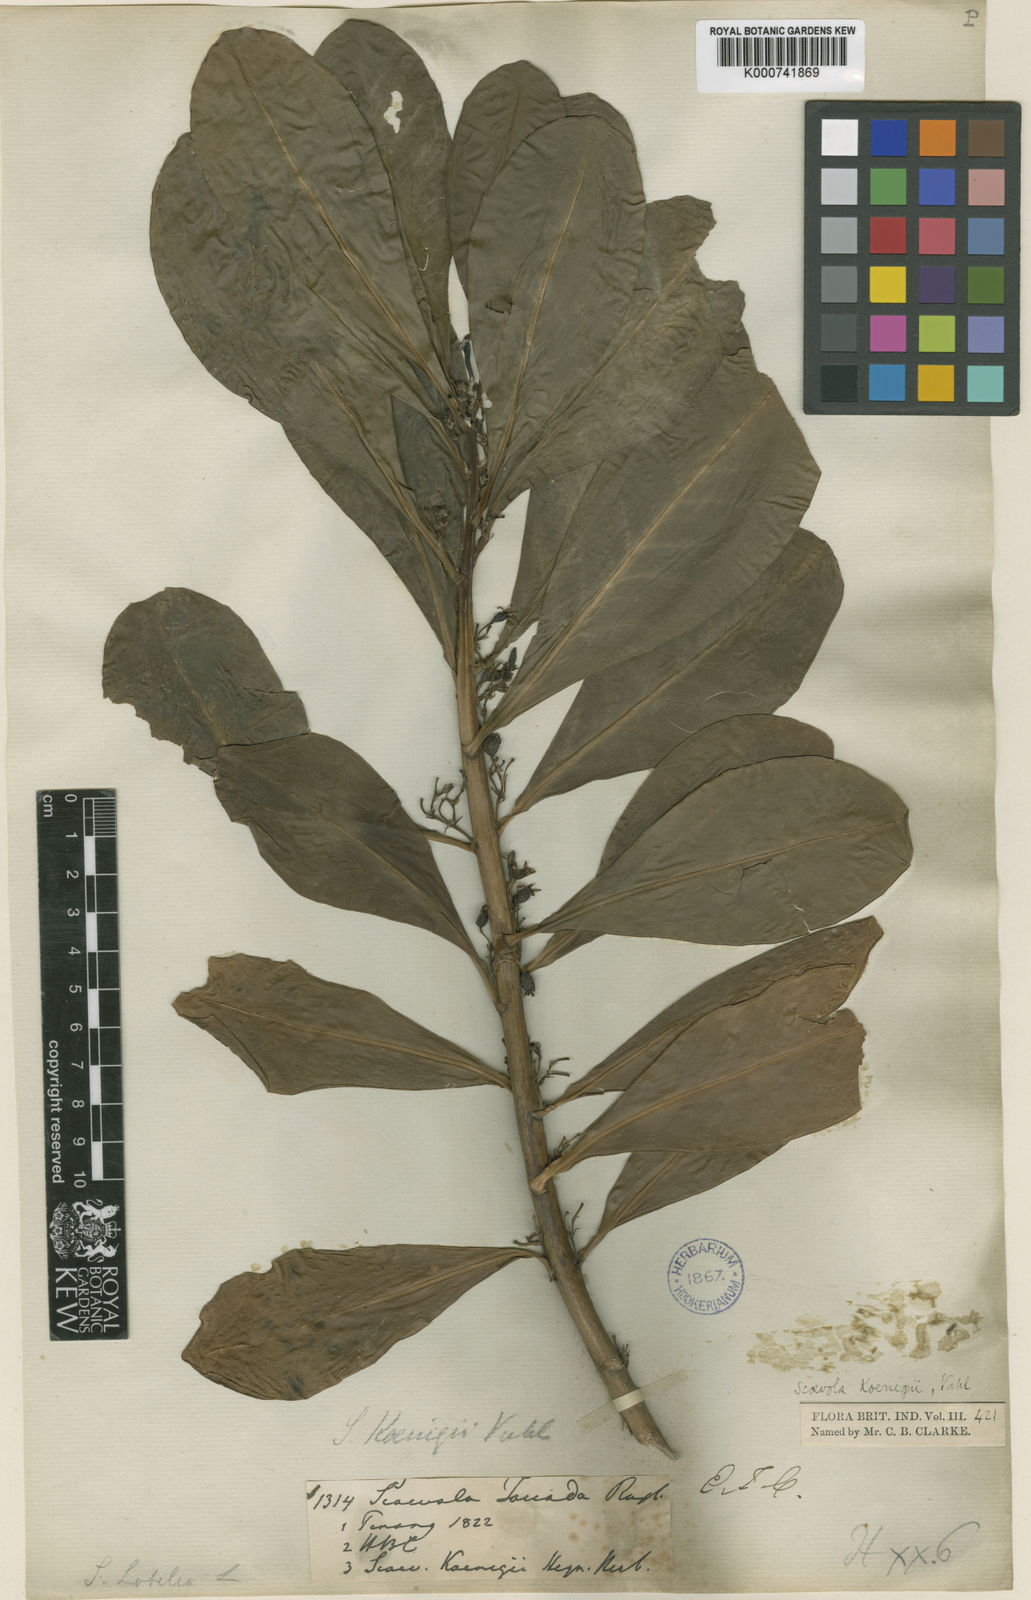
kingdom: Plantae
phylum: Tracheophyta
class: Magnoliopsida
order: Asterales
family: Goodeniaceae
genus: Scaevola
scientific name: Scaevola taccada
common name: Sea lettucetree
